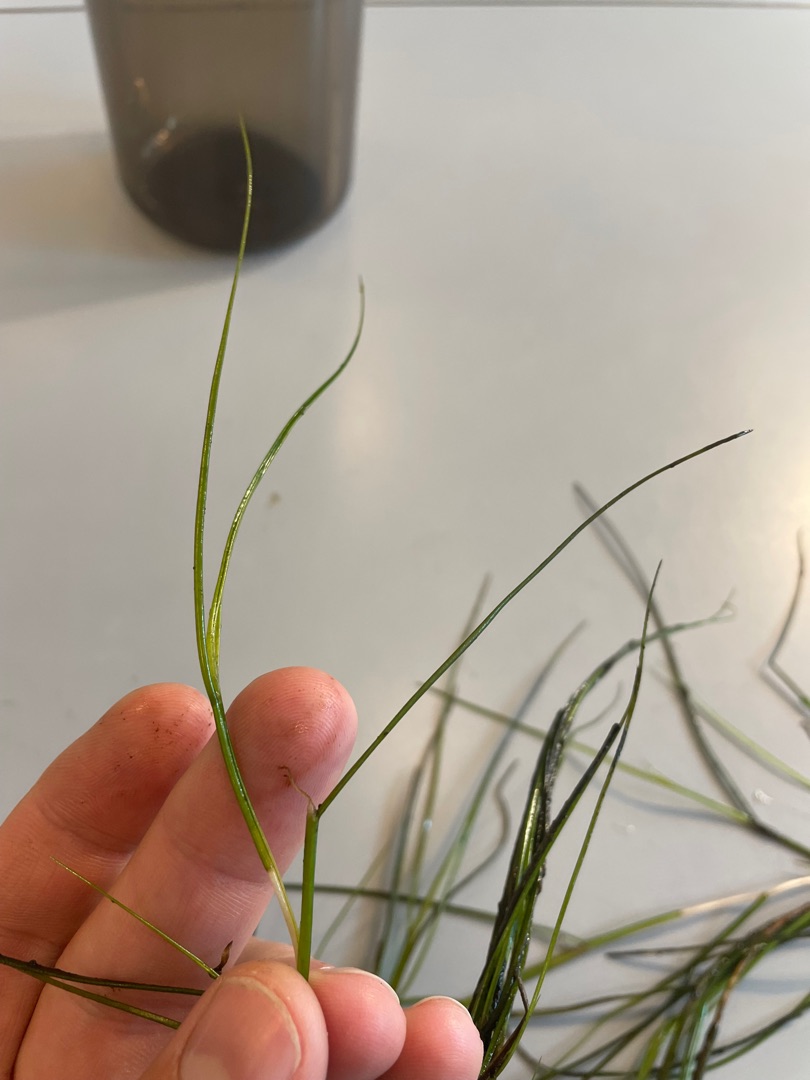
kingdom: Plantae
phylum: Tracheophyta
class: Liliopsida
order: Alismatales
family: Potamogetonaceae
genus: Stuckenia
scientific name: Stuckenia pectinata
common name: Børstebladet vandaks
